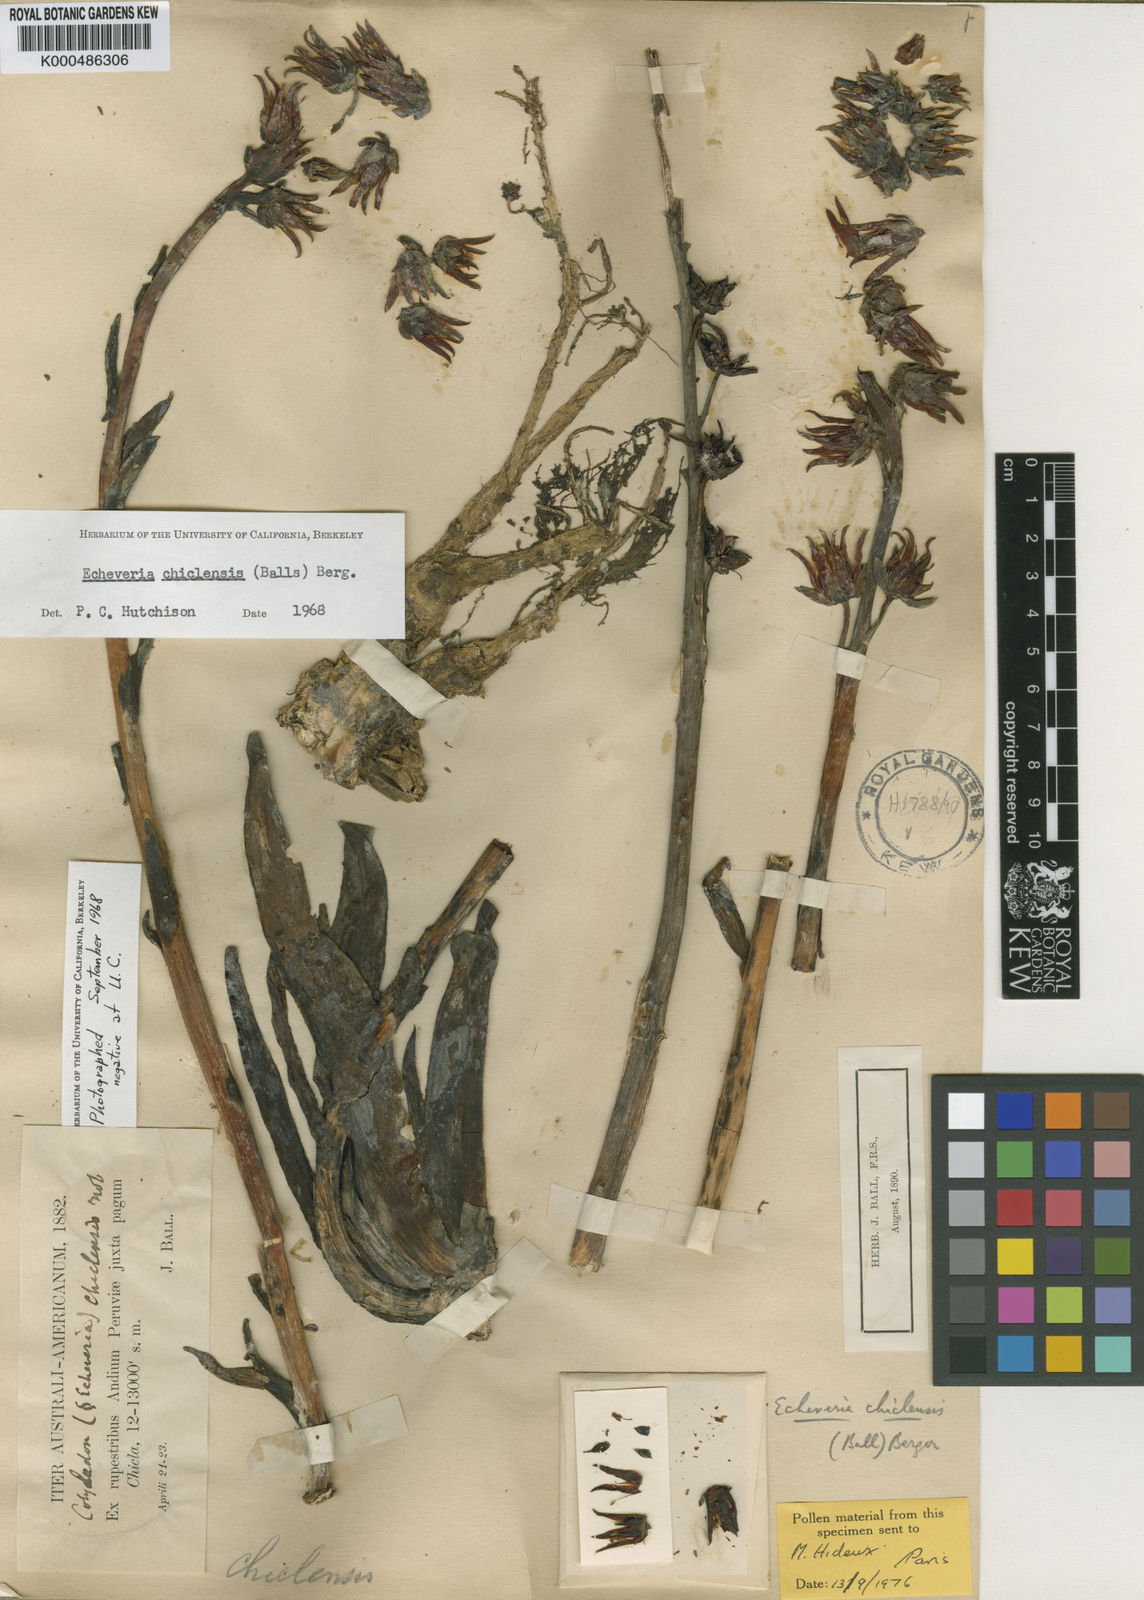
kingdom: Plantae
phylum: Tracheophyta
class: Magnoliopsida
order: Saxifragales
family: Crassulaceae
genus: Echeveria
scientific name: Echeveria chiclensis
